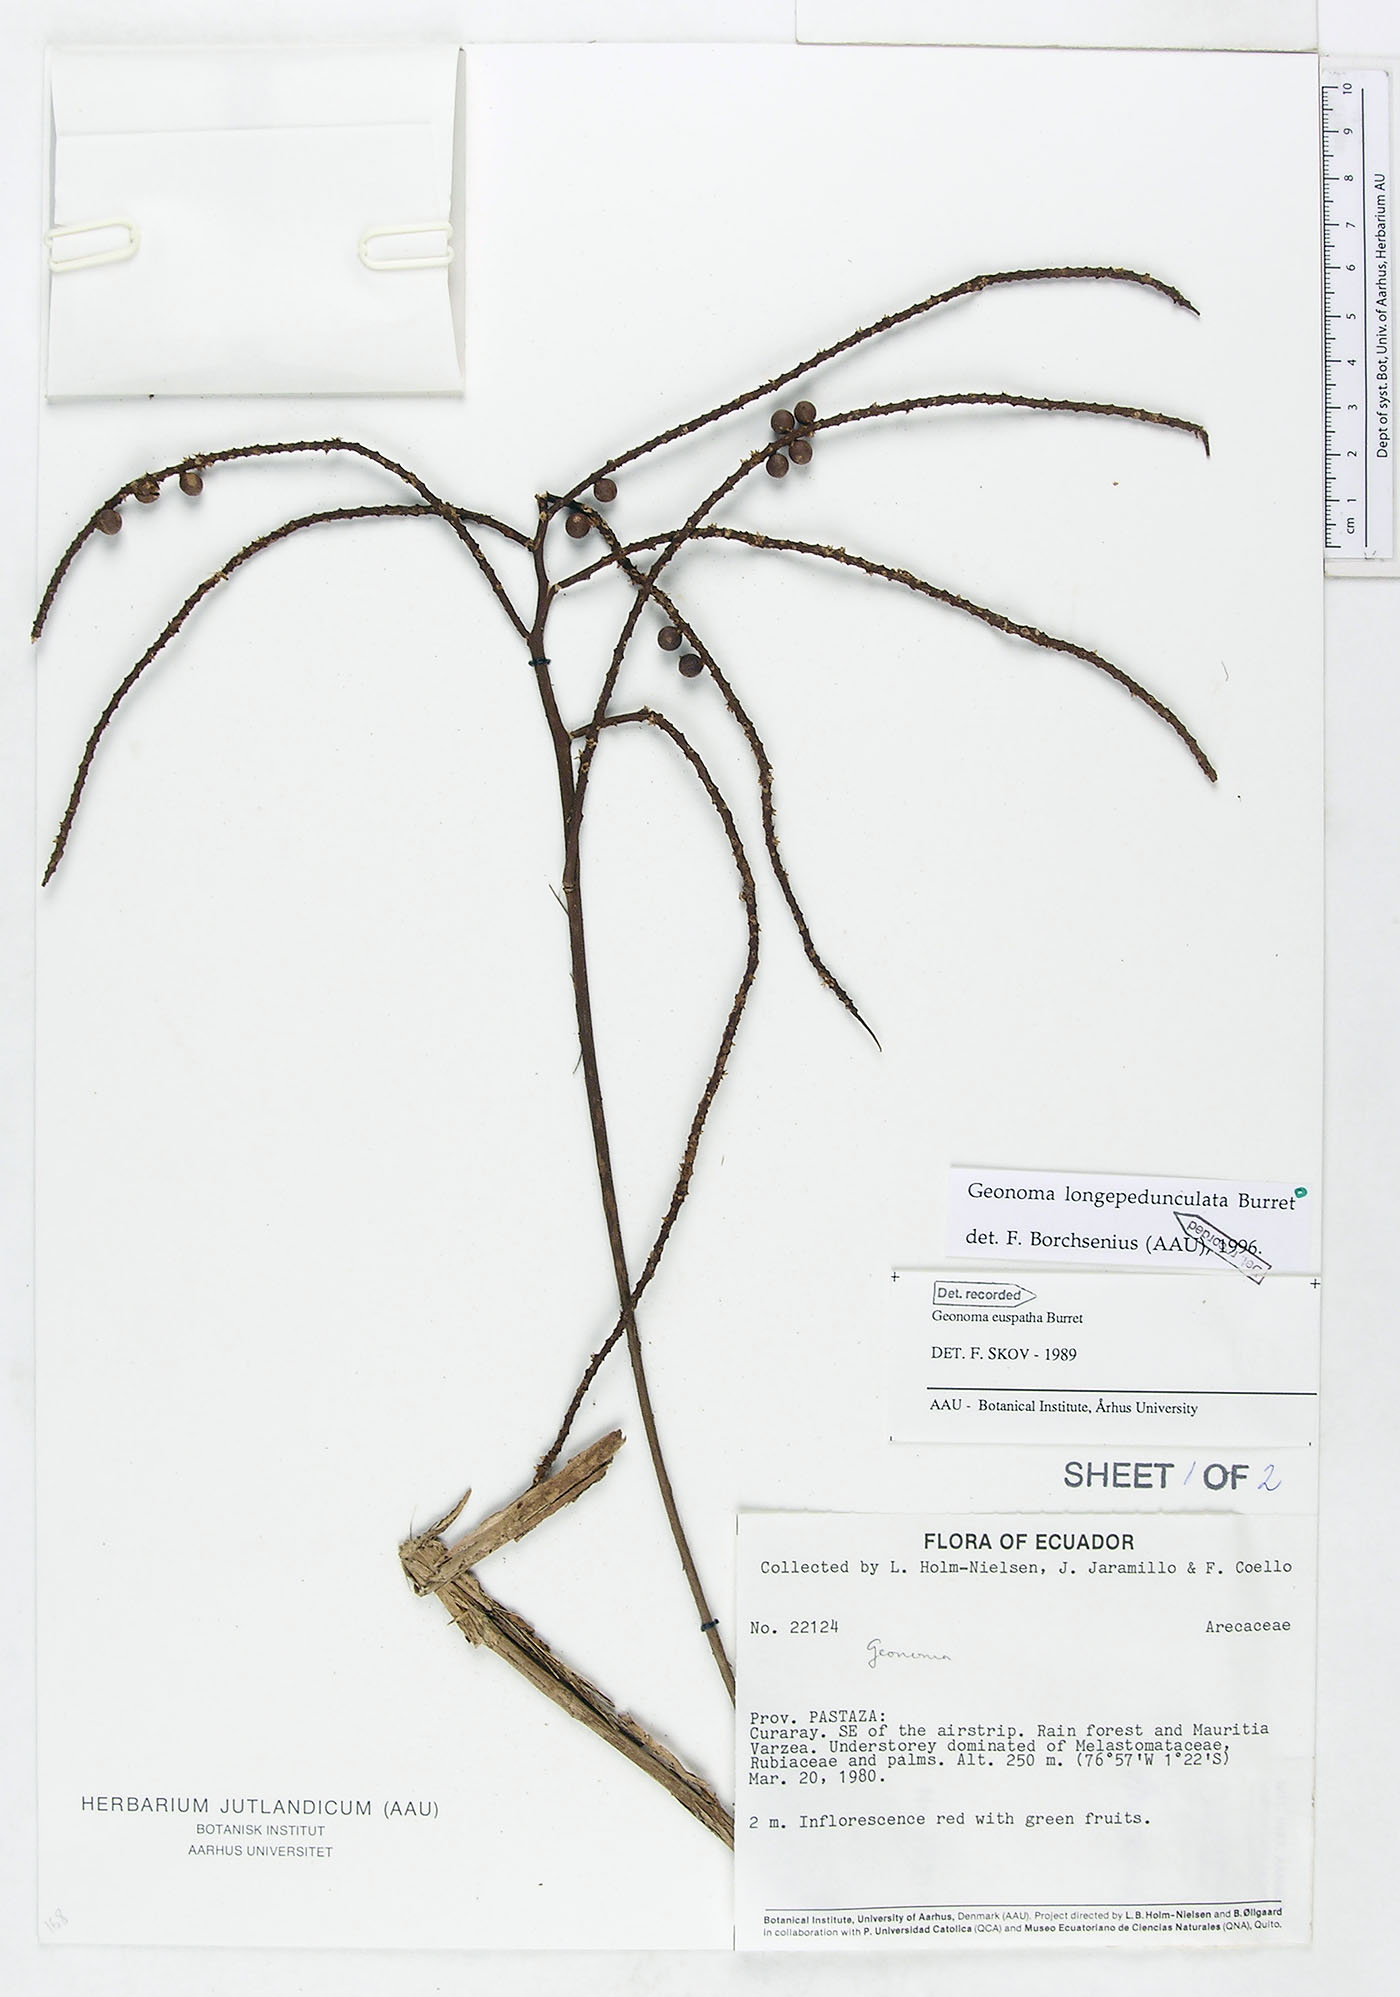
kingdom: Plantae
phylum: Tracheophyta
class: Liliopsida
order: Arecales
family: Arecaceae
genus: Geonoma
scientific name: Geonoma longepedunculata
